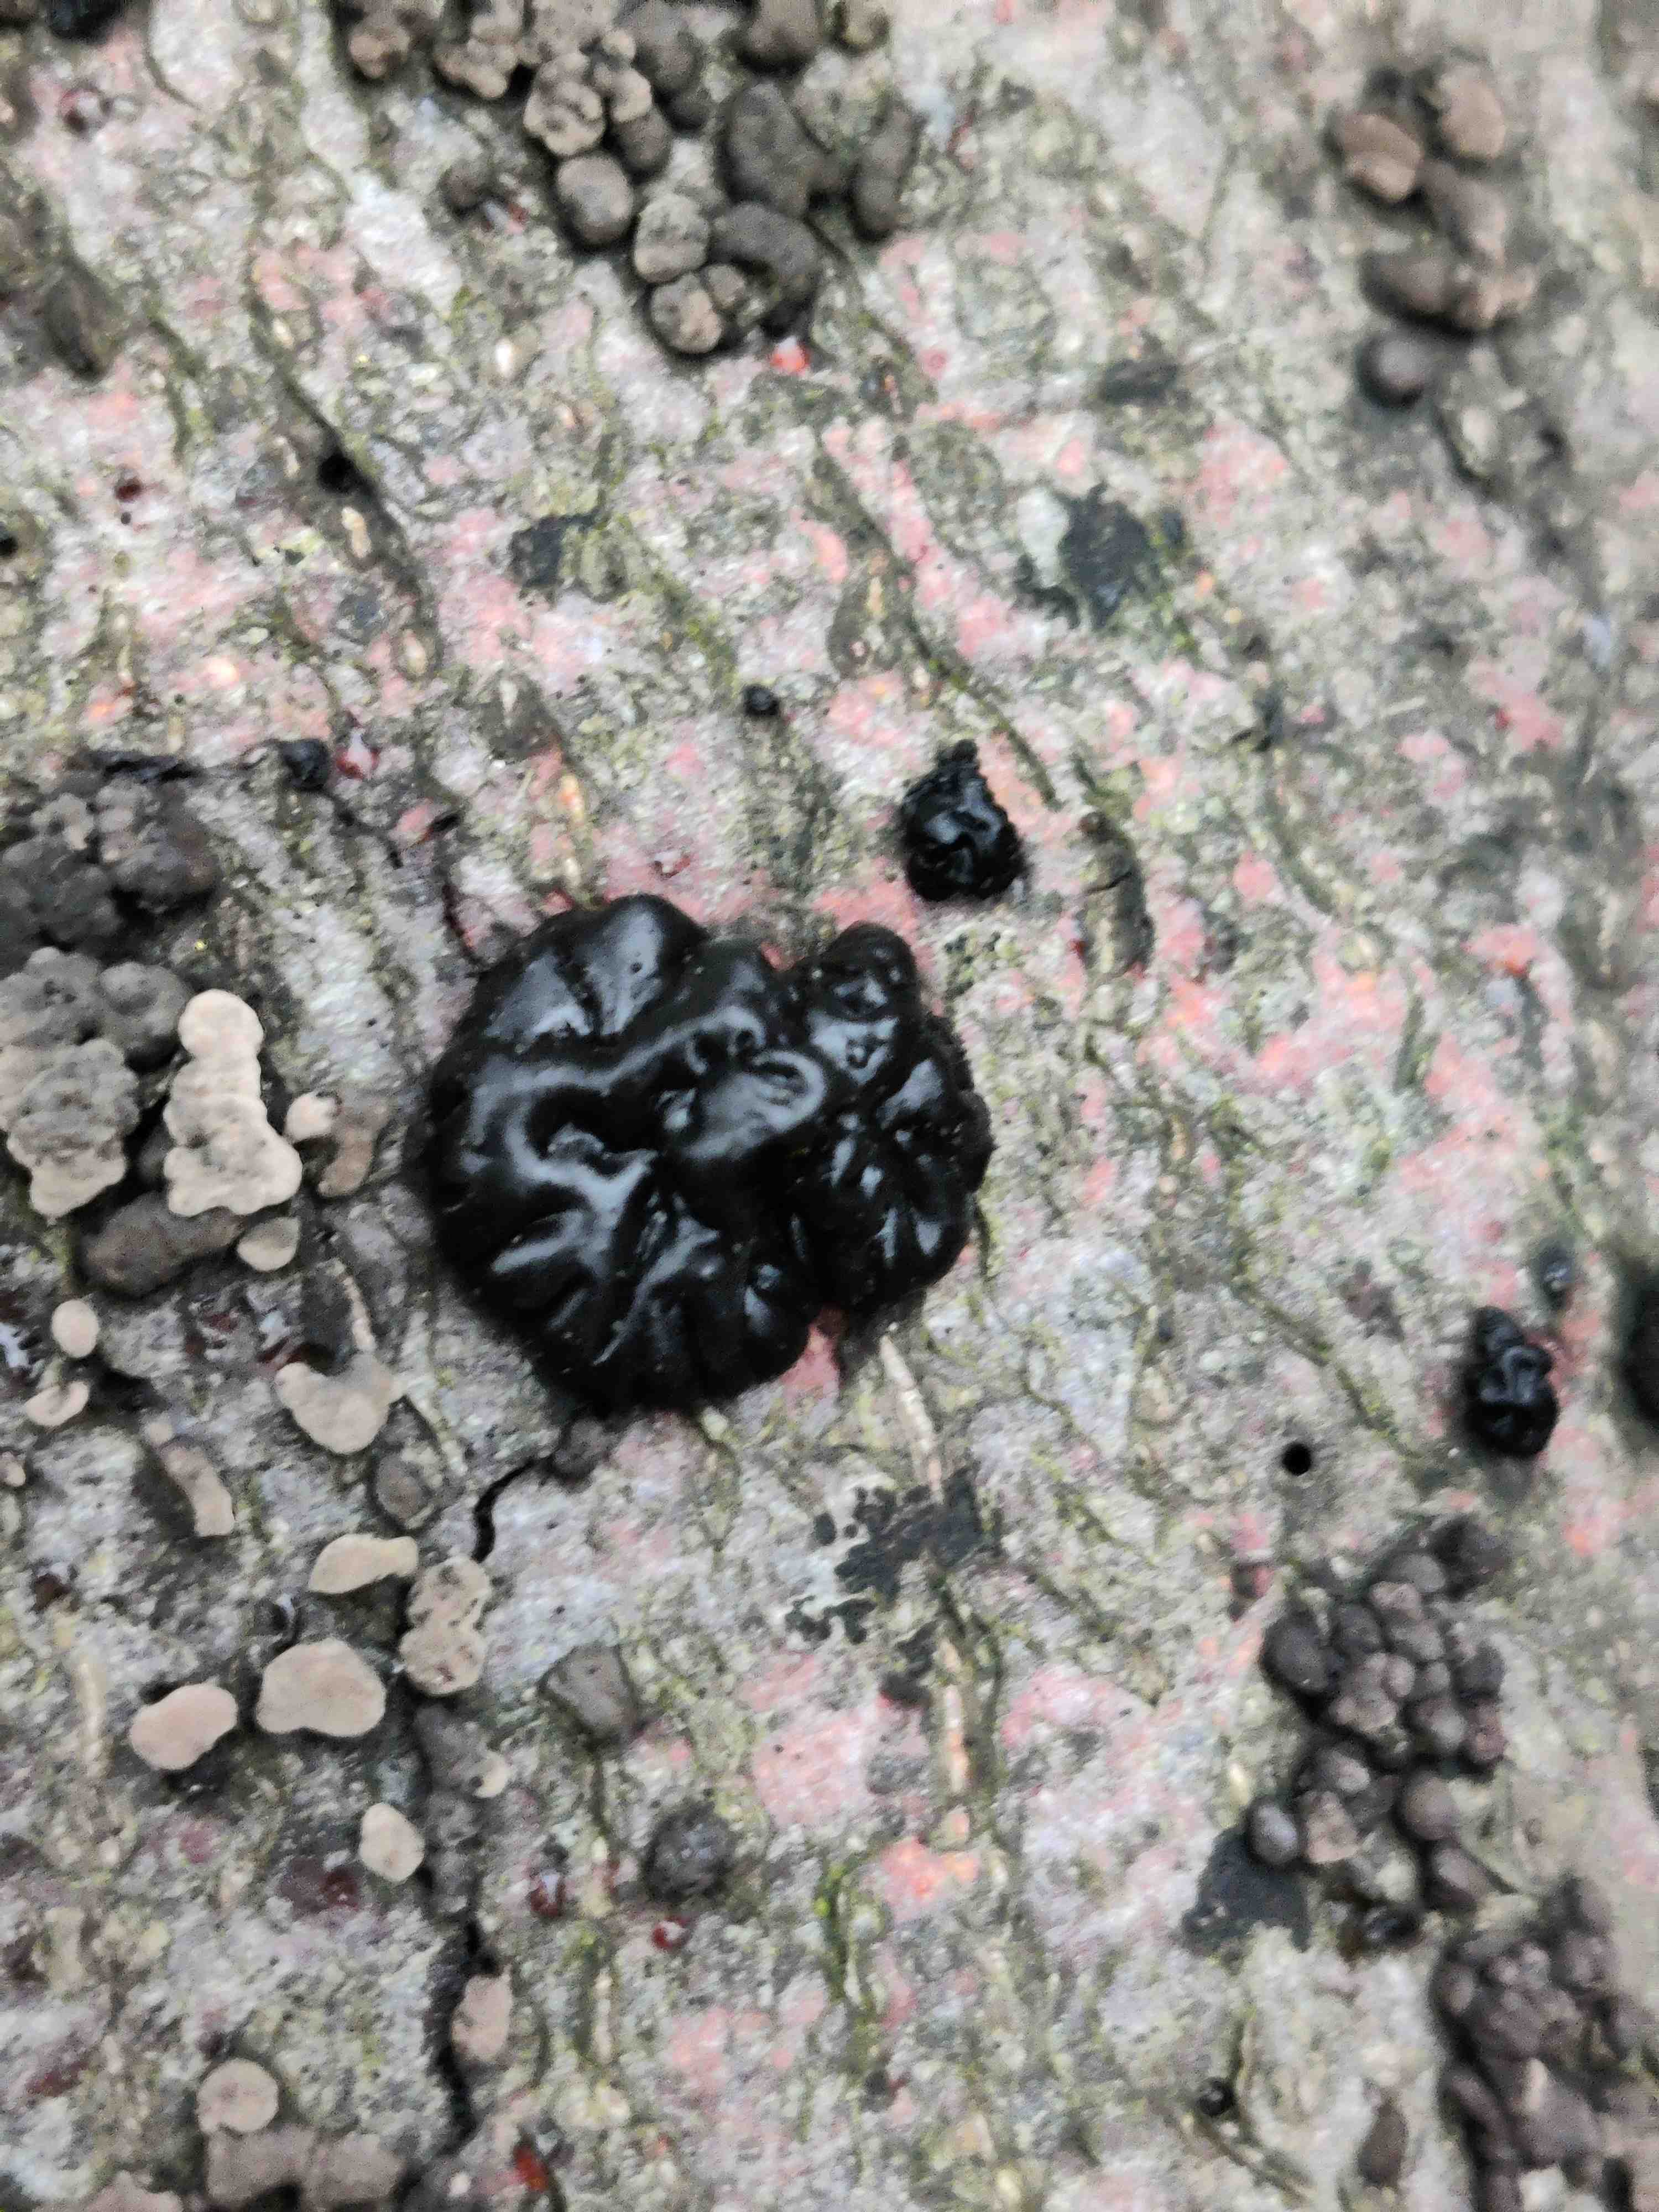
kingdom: Fungi
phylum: Basidiomycota
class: Agaricomycetes
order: Auriculariales
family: Auriculariaceae
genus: Exidia
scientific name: Exidia nigricans
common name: almindelig bævretop
